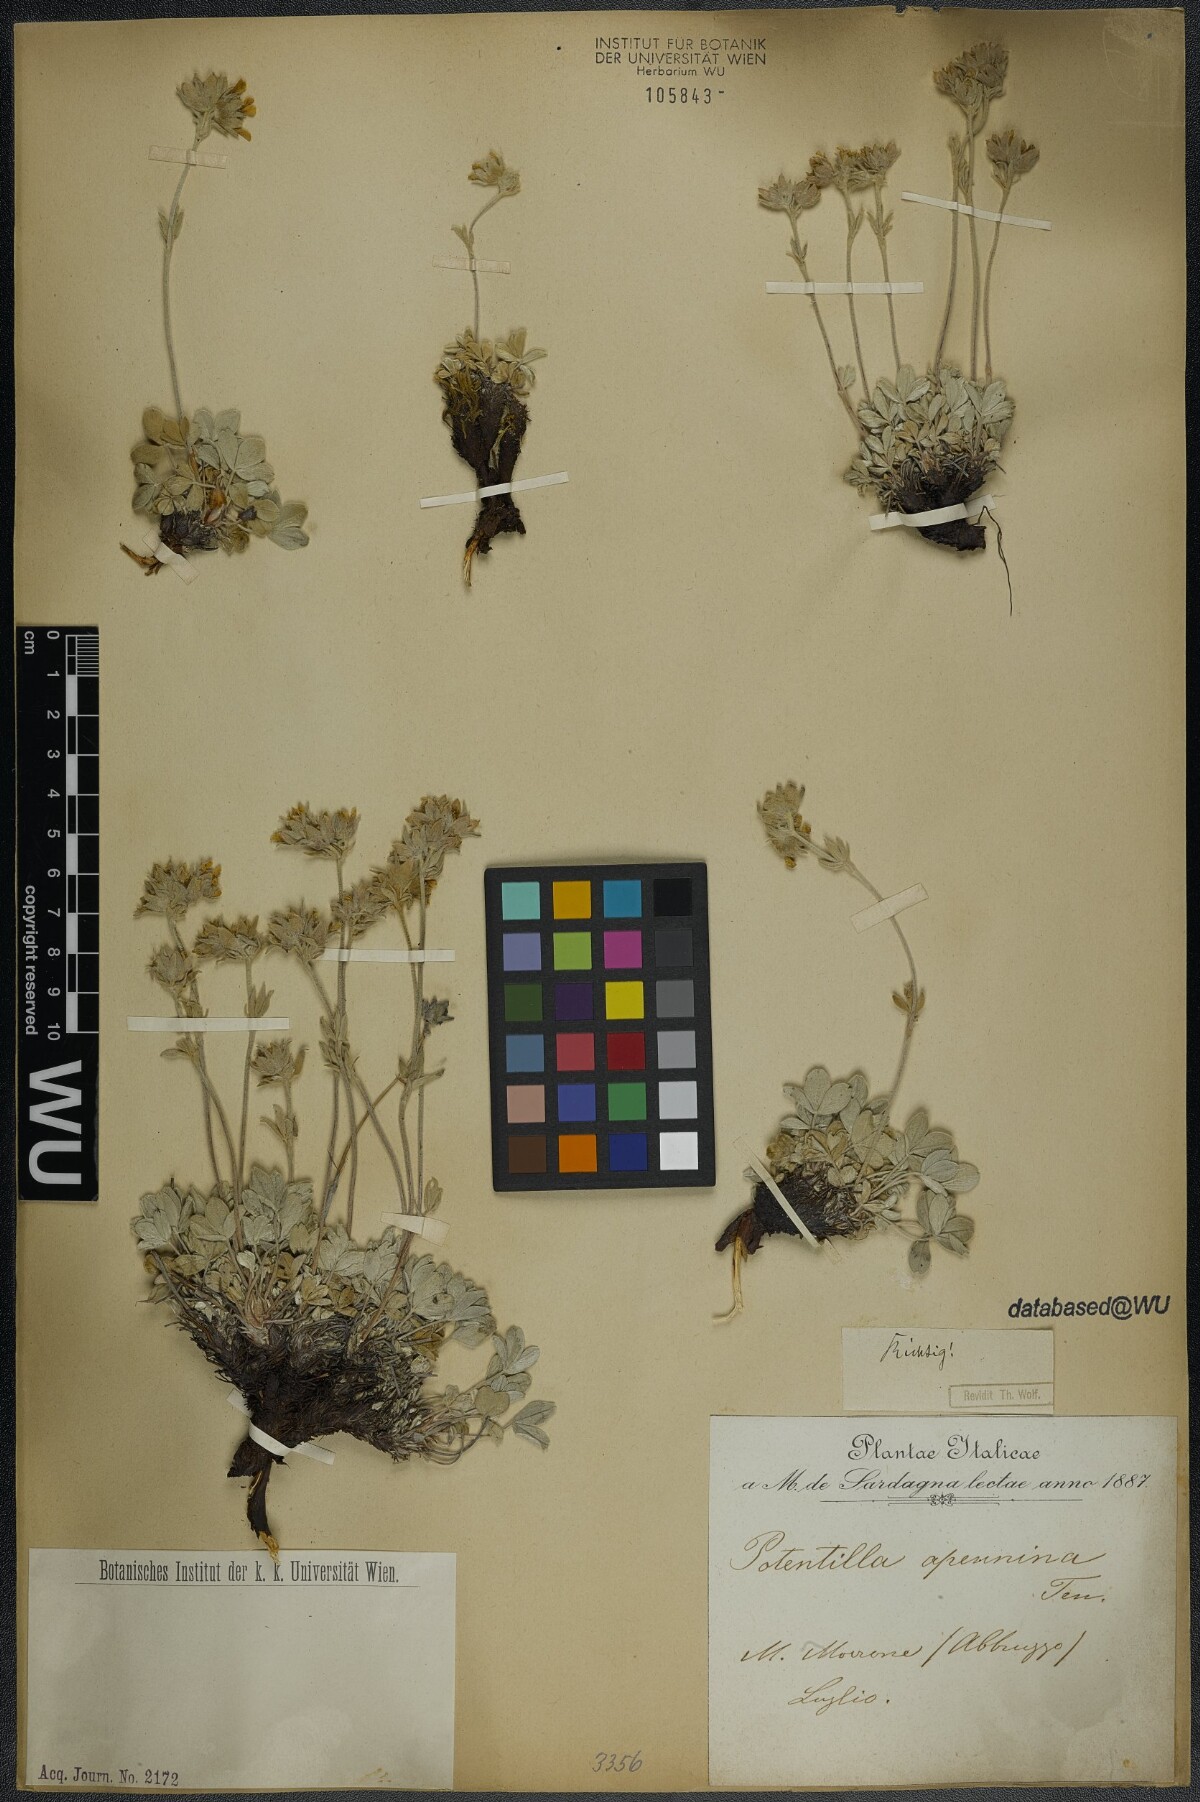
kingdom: Plantae
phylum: Tracheophyta
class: Magnoliopsida
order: Rosales
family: Rosaceae
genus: Potentilla
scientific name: Potentilla apennina
